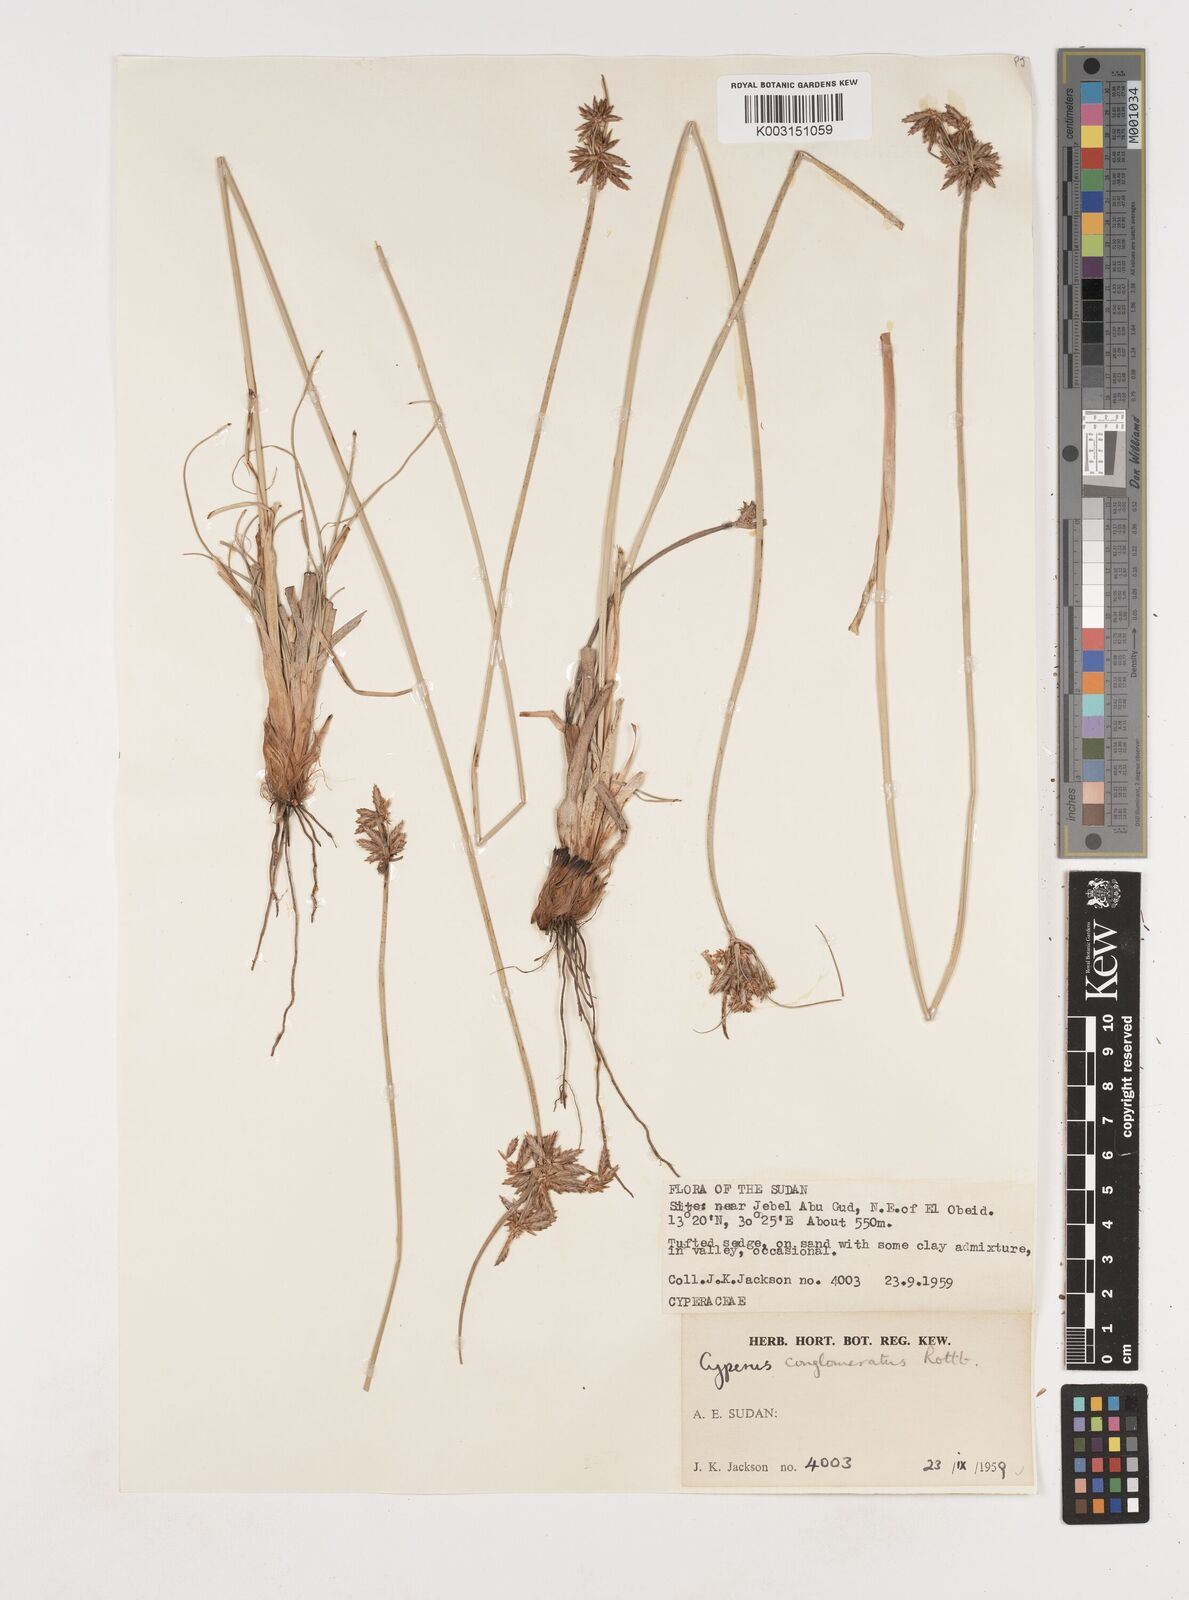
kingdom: Plantae
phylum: Tracheophyta
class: Liliopsida
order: Poales
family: Cyperaceae
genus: Cyperus
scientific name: Cyperus jeminicus
